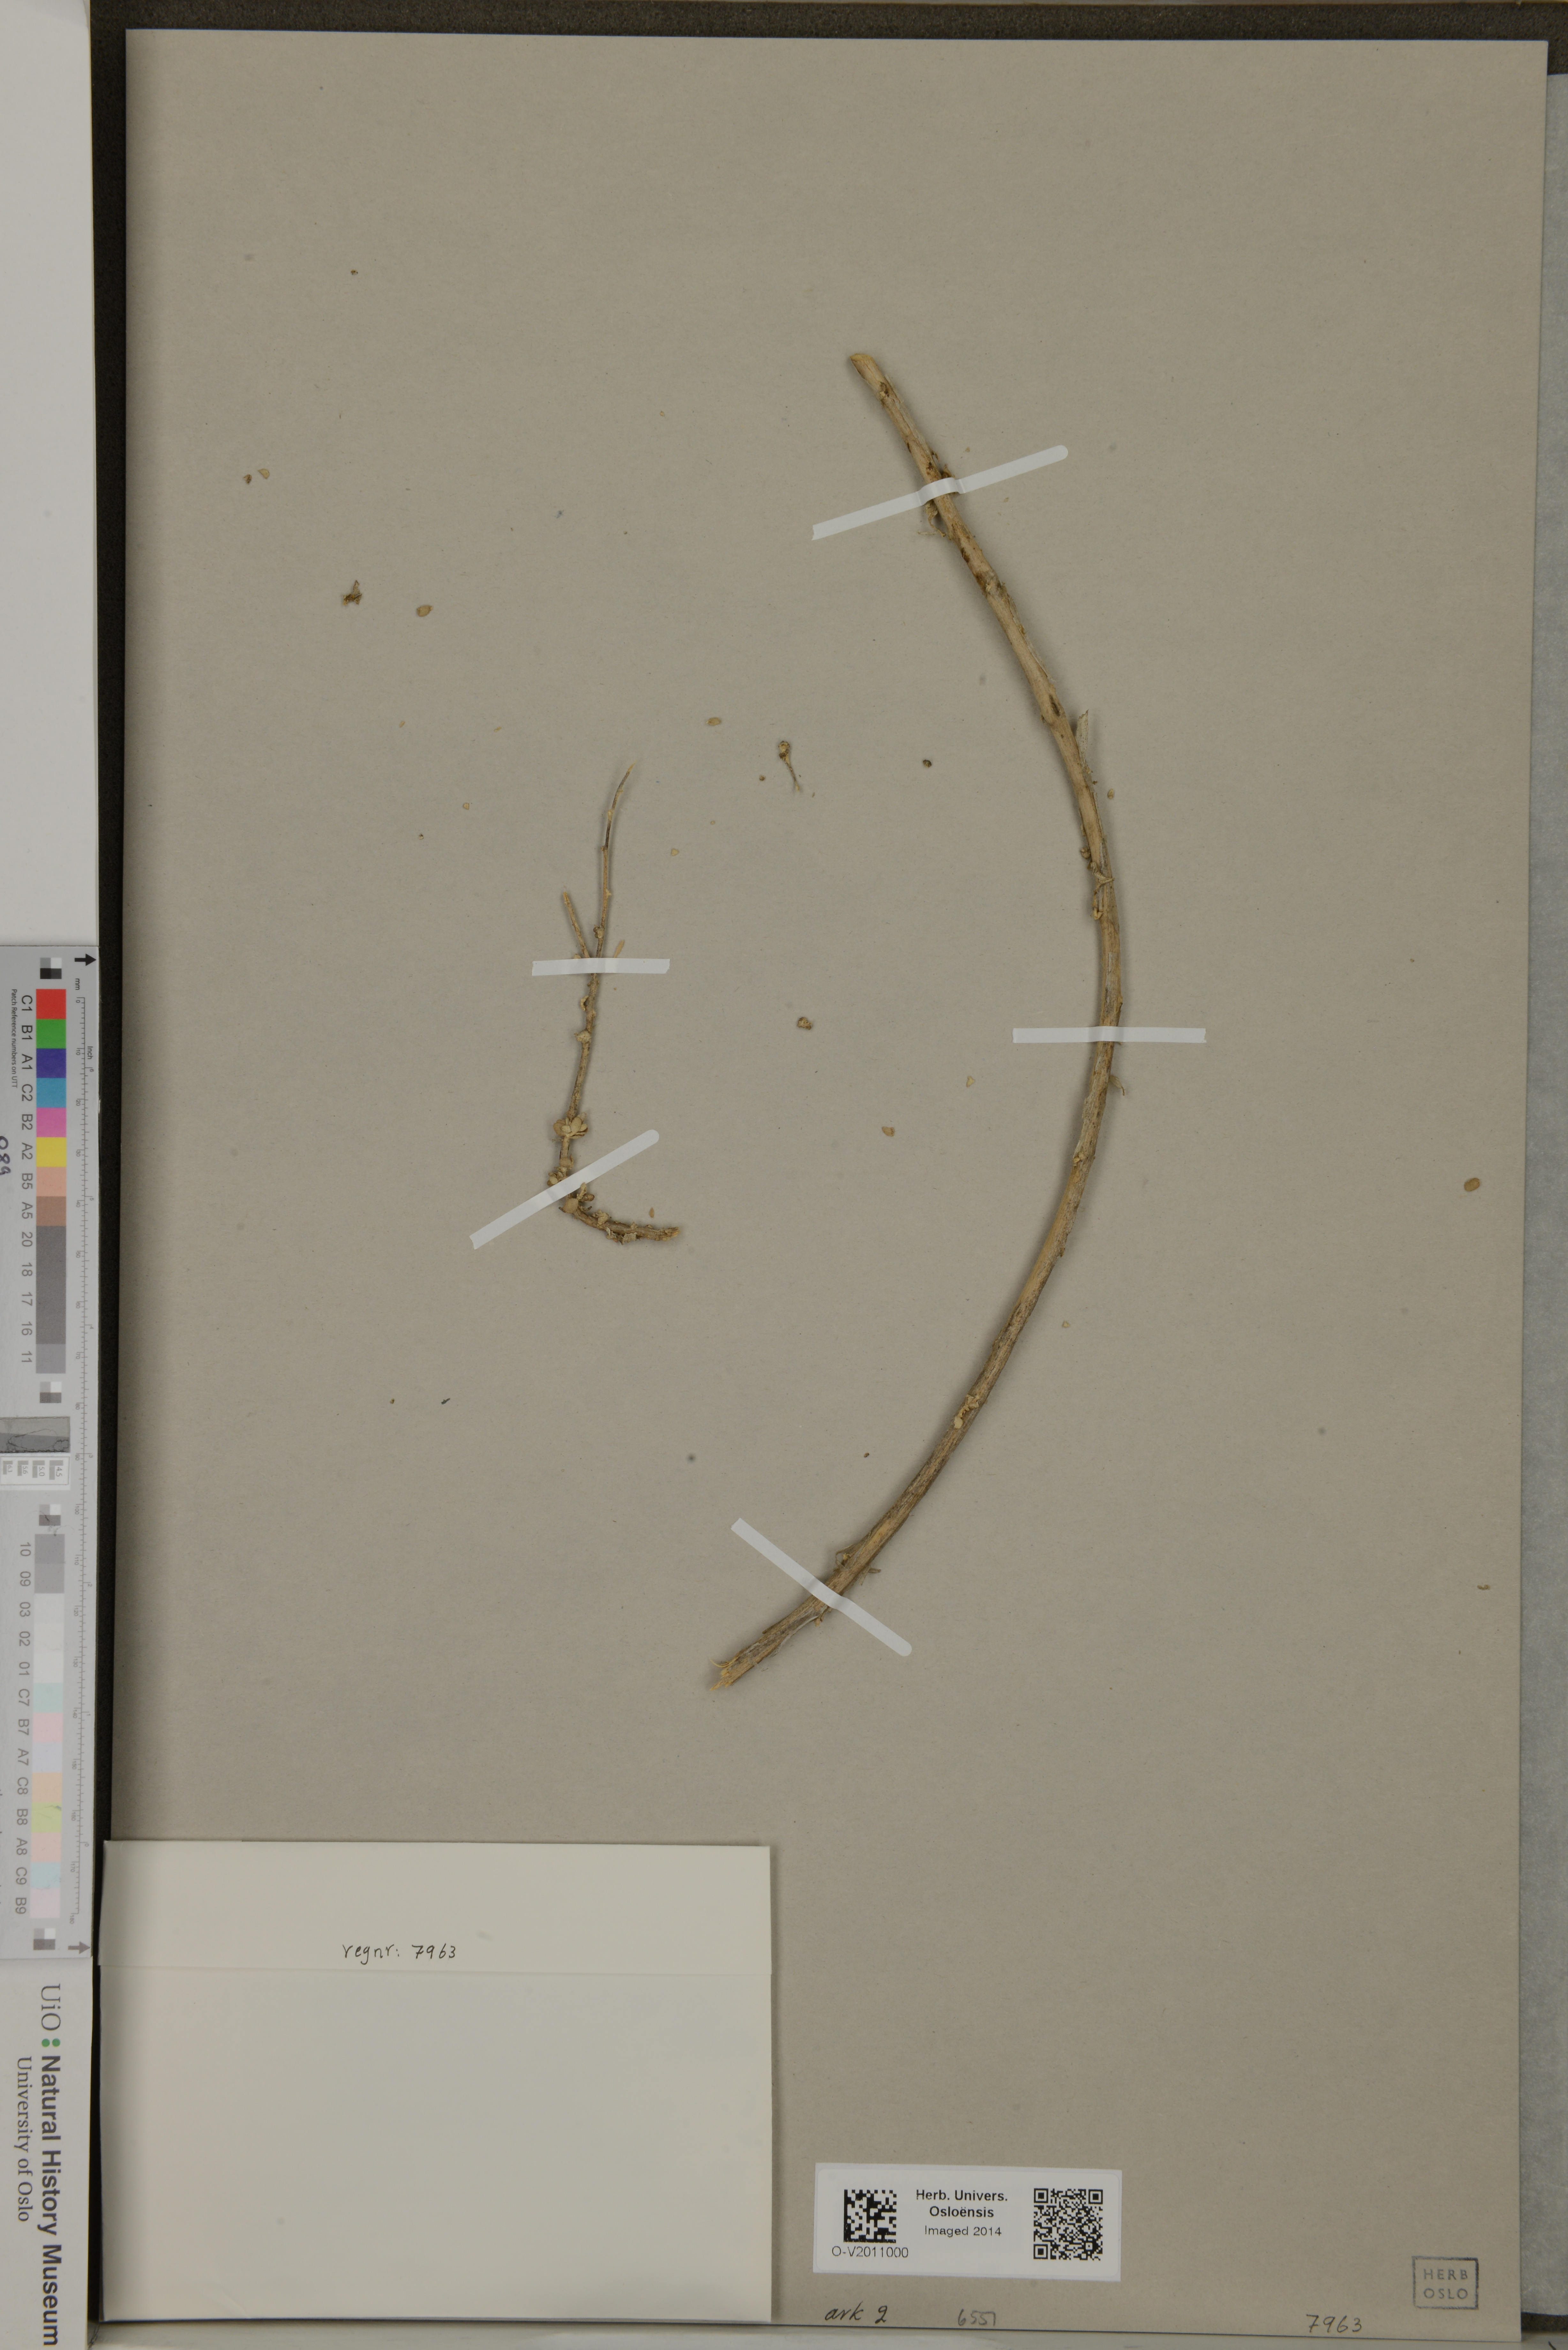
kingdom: Plantae
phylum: Tracheophyta
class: Magnoliopsida
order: Caryophyllales
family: Amaranthaceae
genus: Atriplex
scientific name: Atriplex glauca
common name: Waxy saltbush
